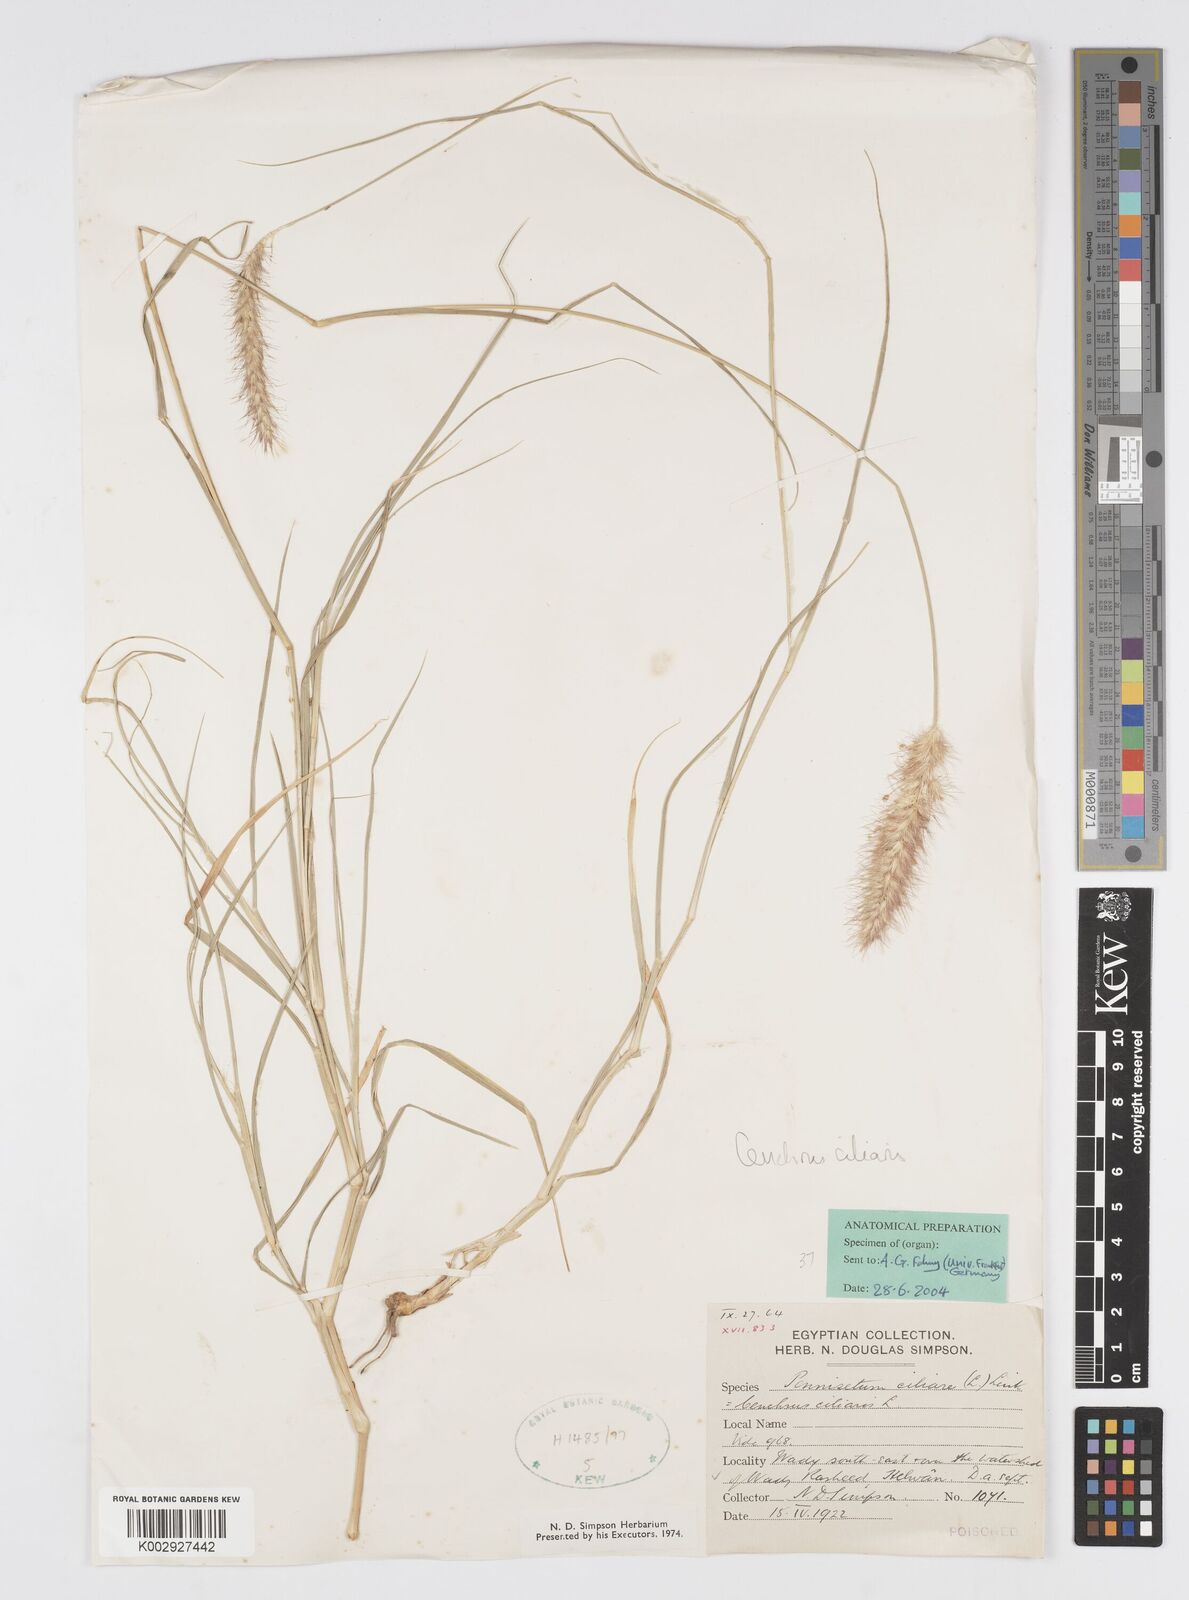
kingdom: Plantae
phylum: Tracheophyta
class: Liliopsida
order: Poales
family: Poaceae
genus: Cenchrus
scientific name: Cenchrus ciliaris
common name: Buffelgrass
